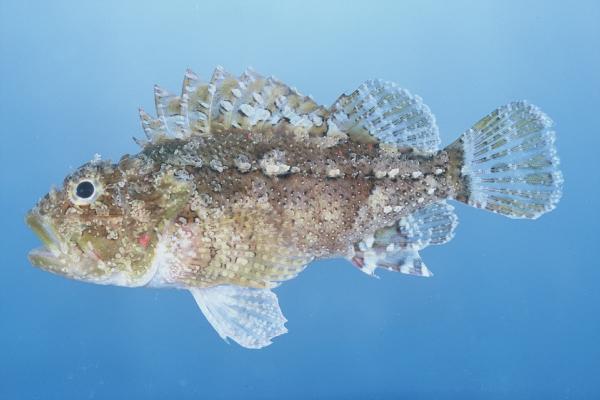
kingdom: Animalia
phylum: Chordata
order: Scorpaeniformes
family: Scorpaenidae
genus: Sebastapistes
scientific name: Sebastapistes mauritiana
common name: Spineblotch scorpionfish
